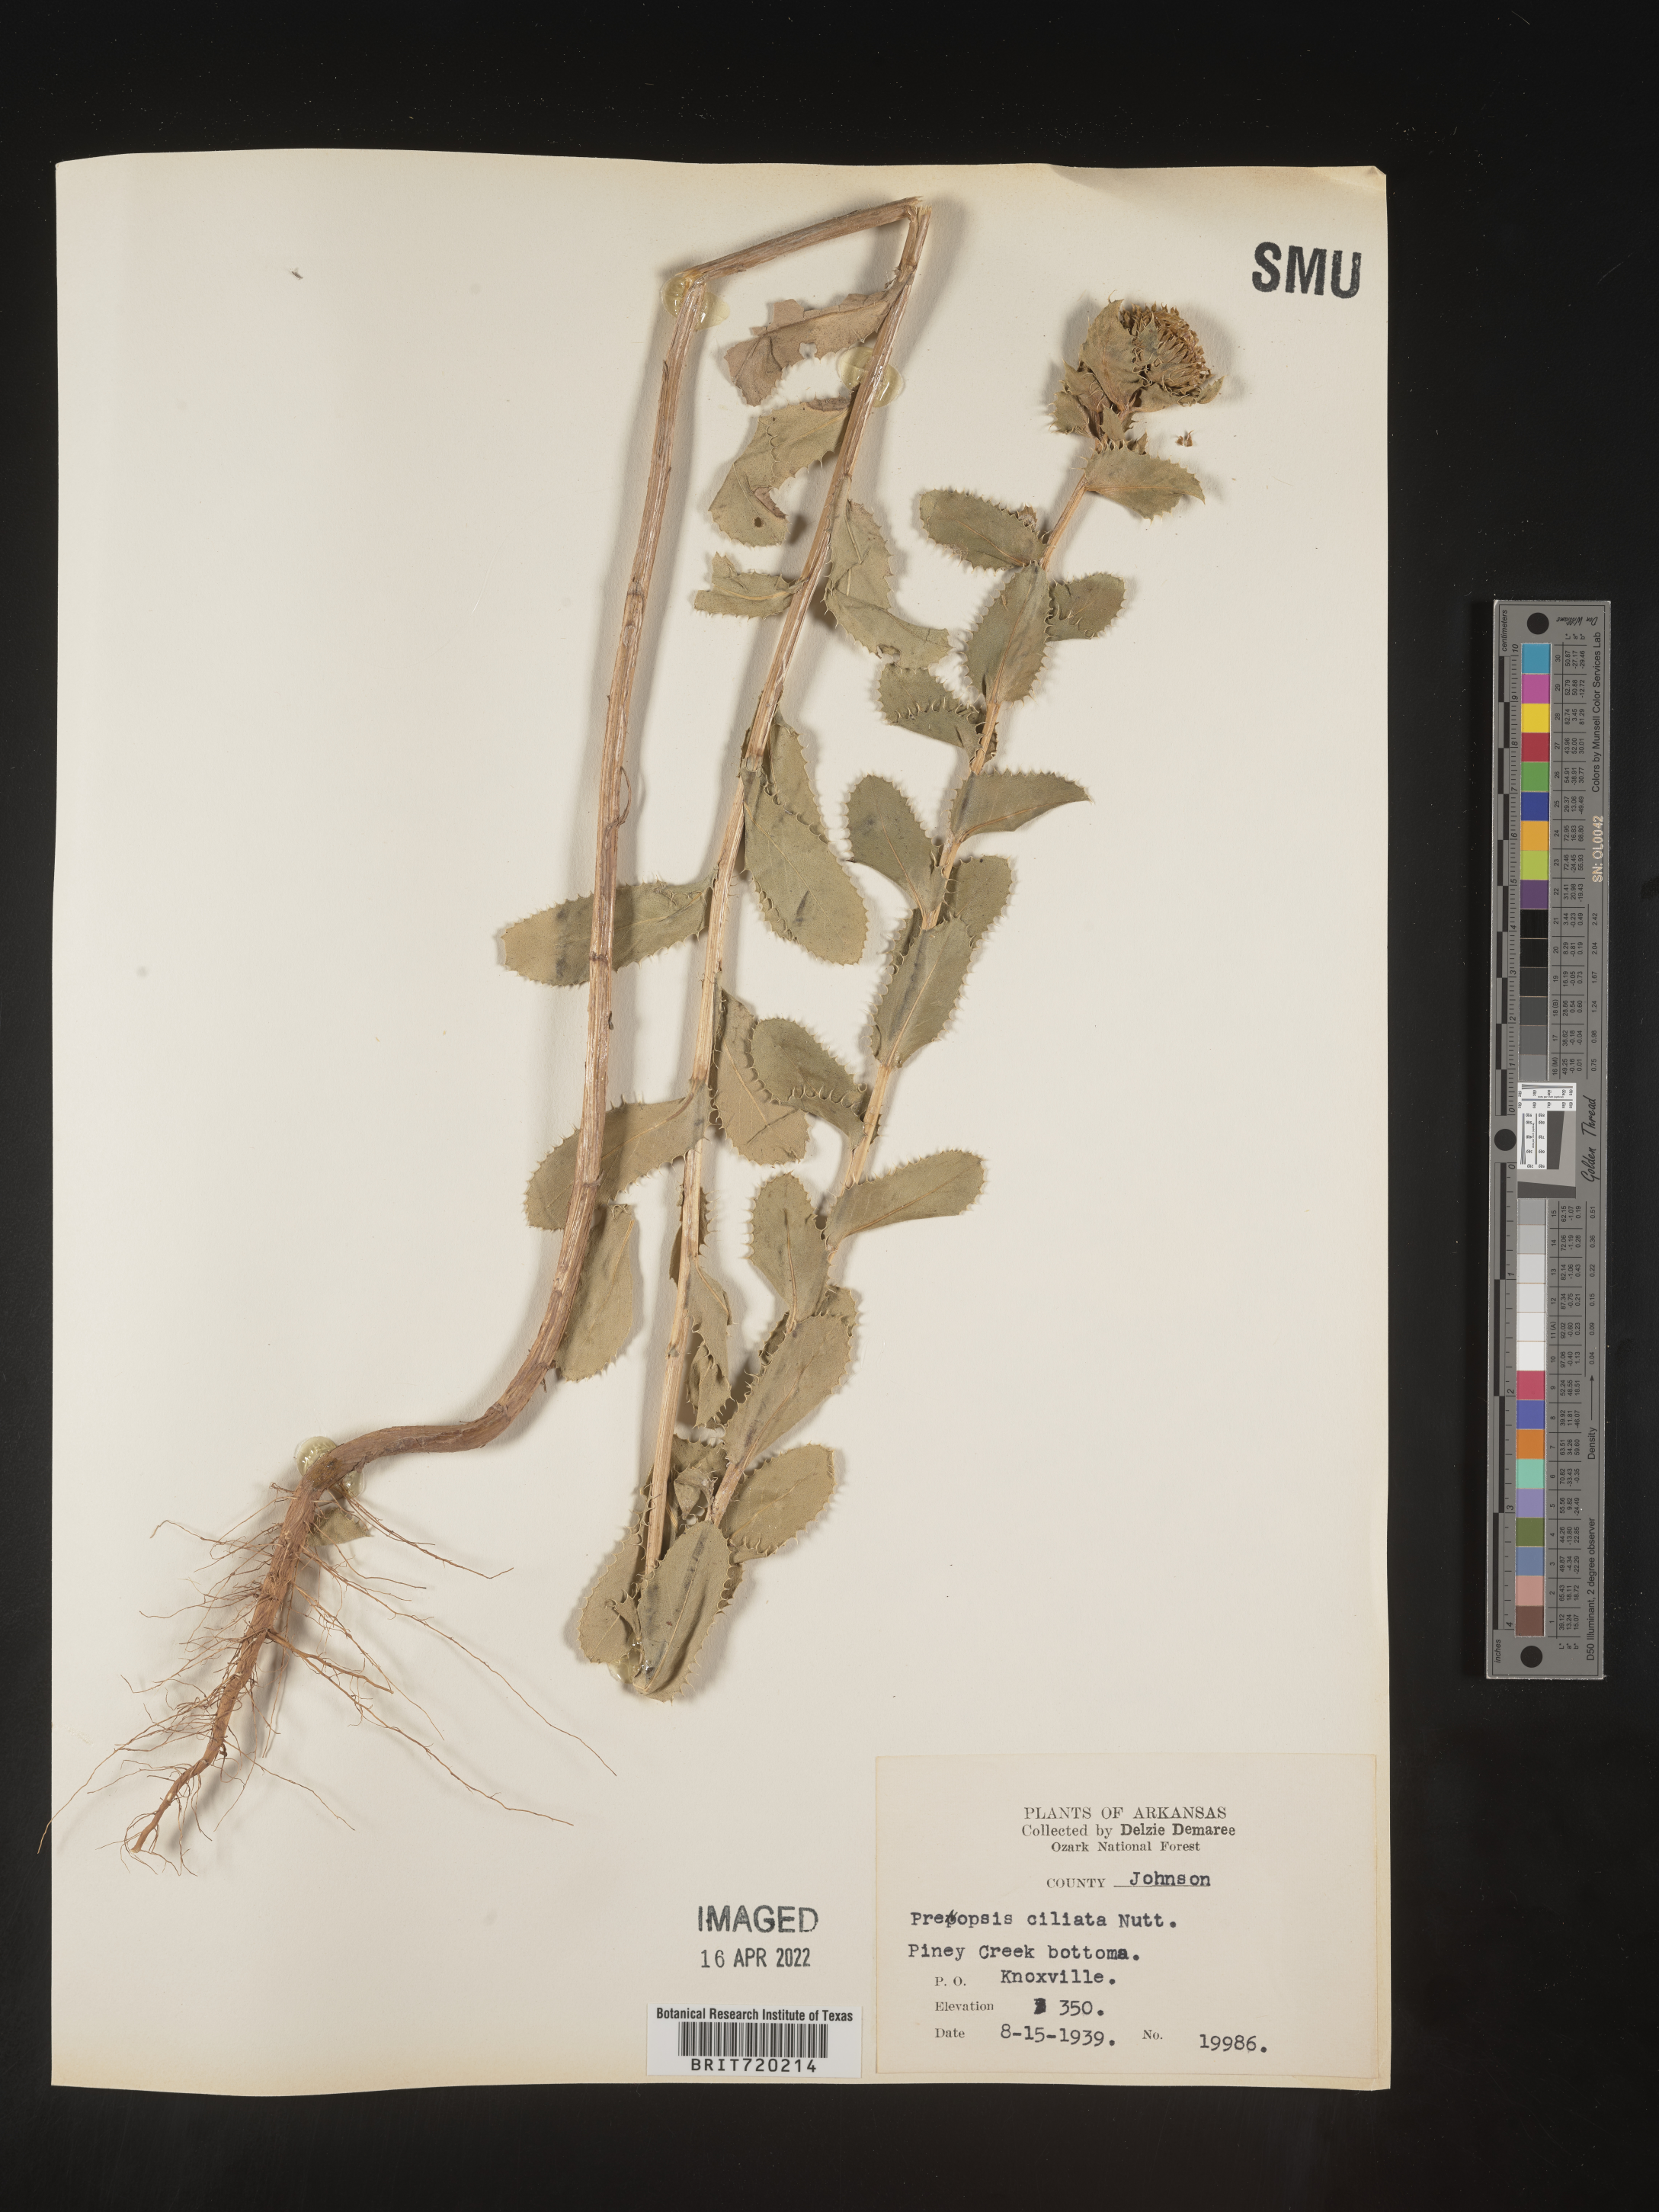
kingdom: Plantae
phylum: Tracheophyta
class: Magnoliopsida
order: Asterales
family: Asteraceae
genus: Grindelia
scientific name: Grindelia ciliata
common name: Goldenweed
